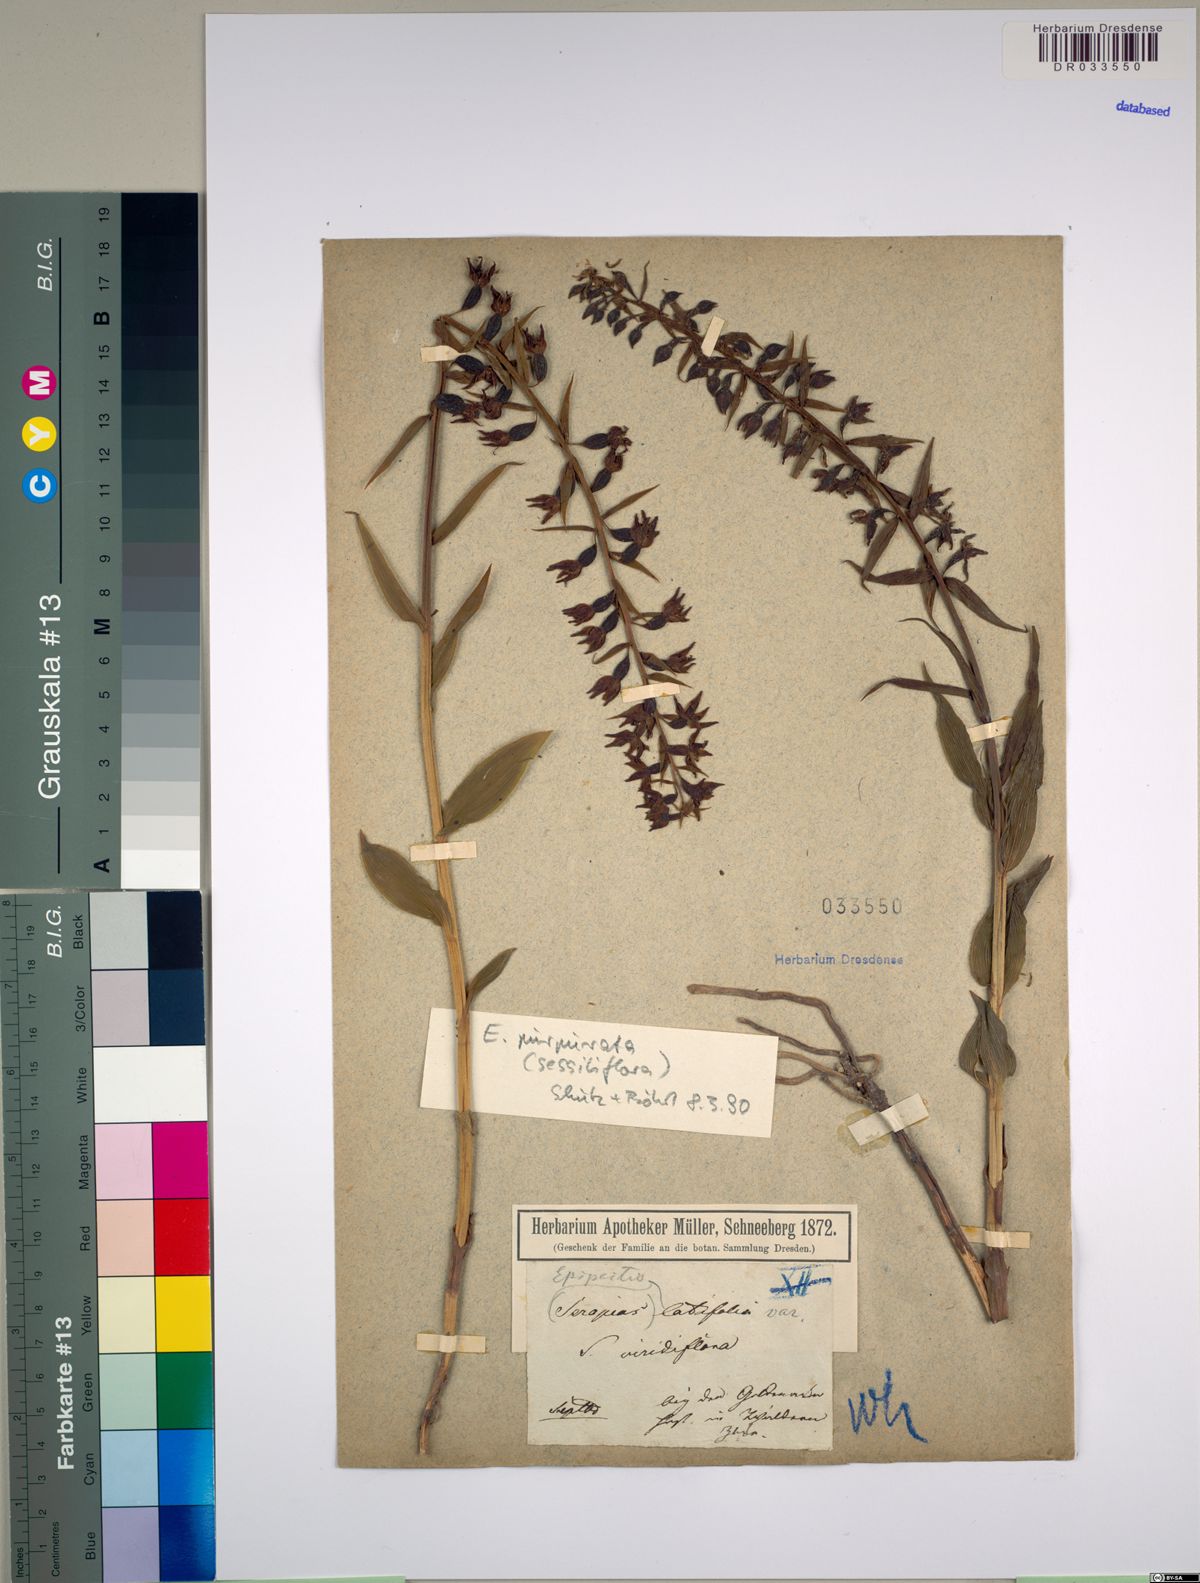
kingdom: Plantae
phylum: Tracheophyta
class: Liliopsida
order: Asparagales
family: Orchidaceae
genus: Epipactis
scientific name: Epipactis purpurata
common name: Violet helleborine
